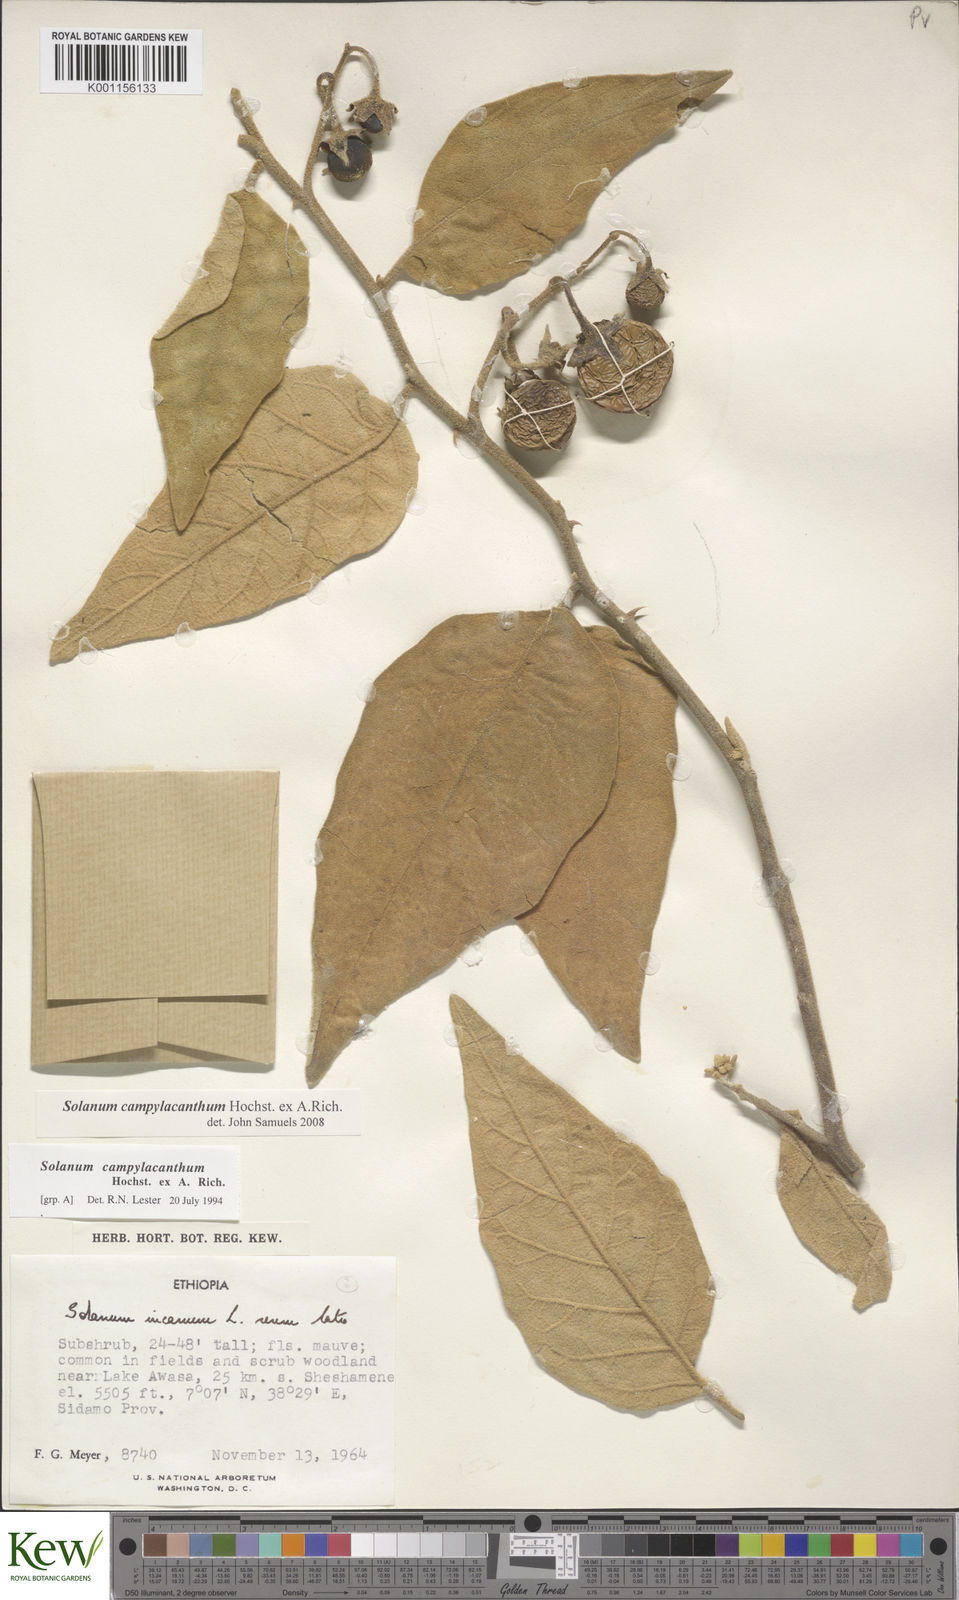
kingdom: Plantae
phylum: Tracheophyta
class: Magnoliopsida
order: Solanales
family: Solanaceae
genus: Solanum
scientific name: Solanum campylacanthum
